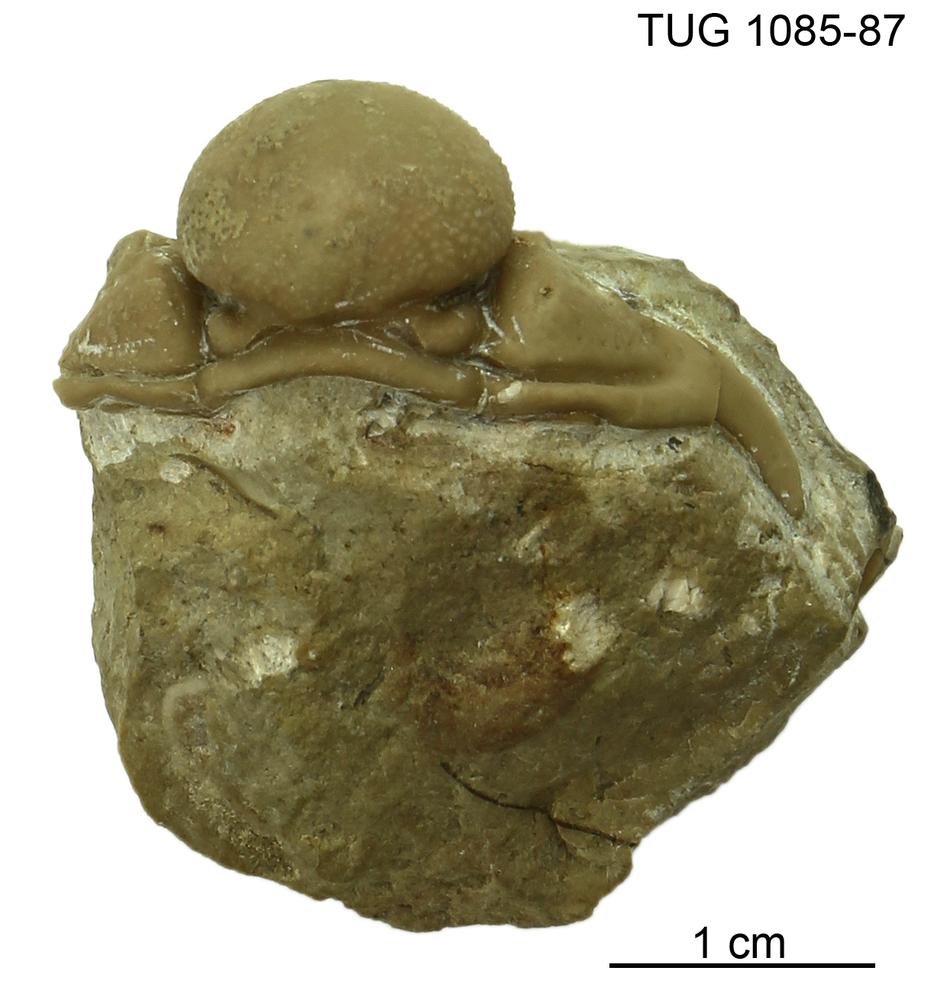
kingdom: Animalia
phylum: Arthropoda
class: Trilobita
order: Phacopida
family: Cheiruridae
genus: Hemisphaerocoryphe
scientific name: Hemisphaerocoryphe pseudohemicranium
